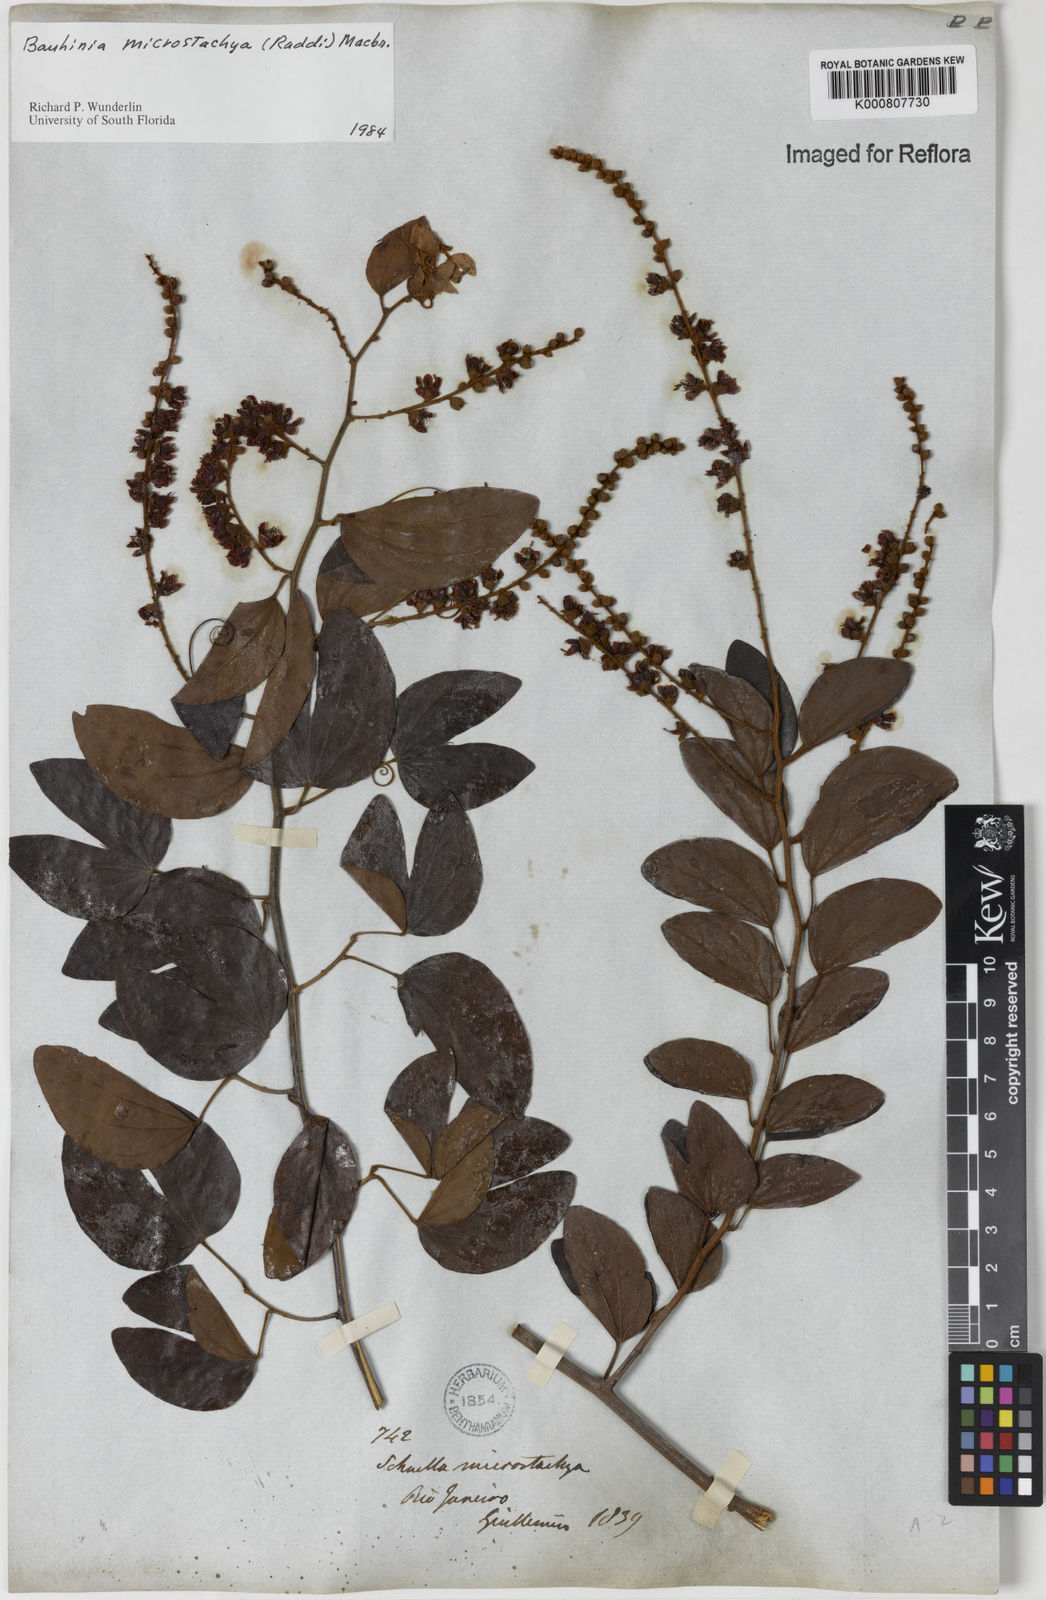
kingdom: Plantae
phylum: Tracheophyta
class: Magnoliopsida
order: Fabales
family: Fabaceae
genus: Schnella
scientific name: Schnella microstachya
